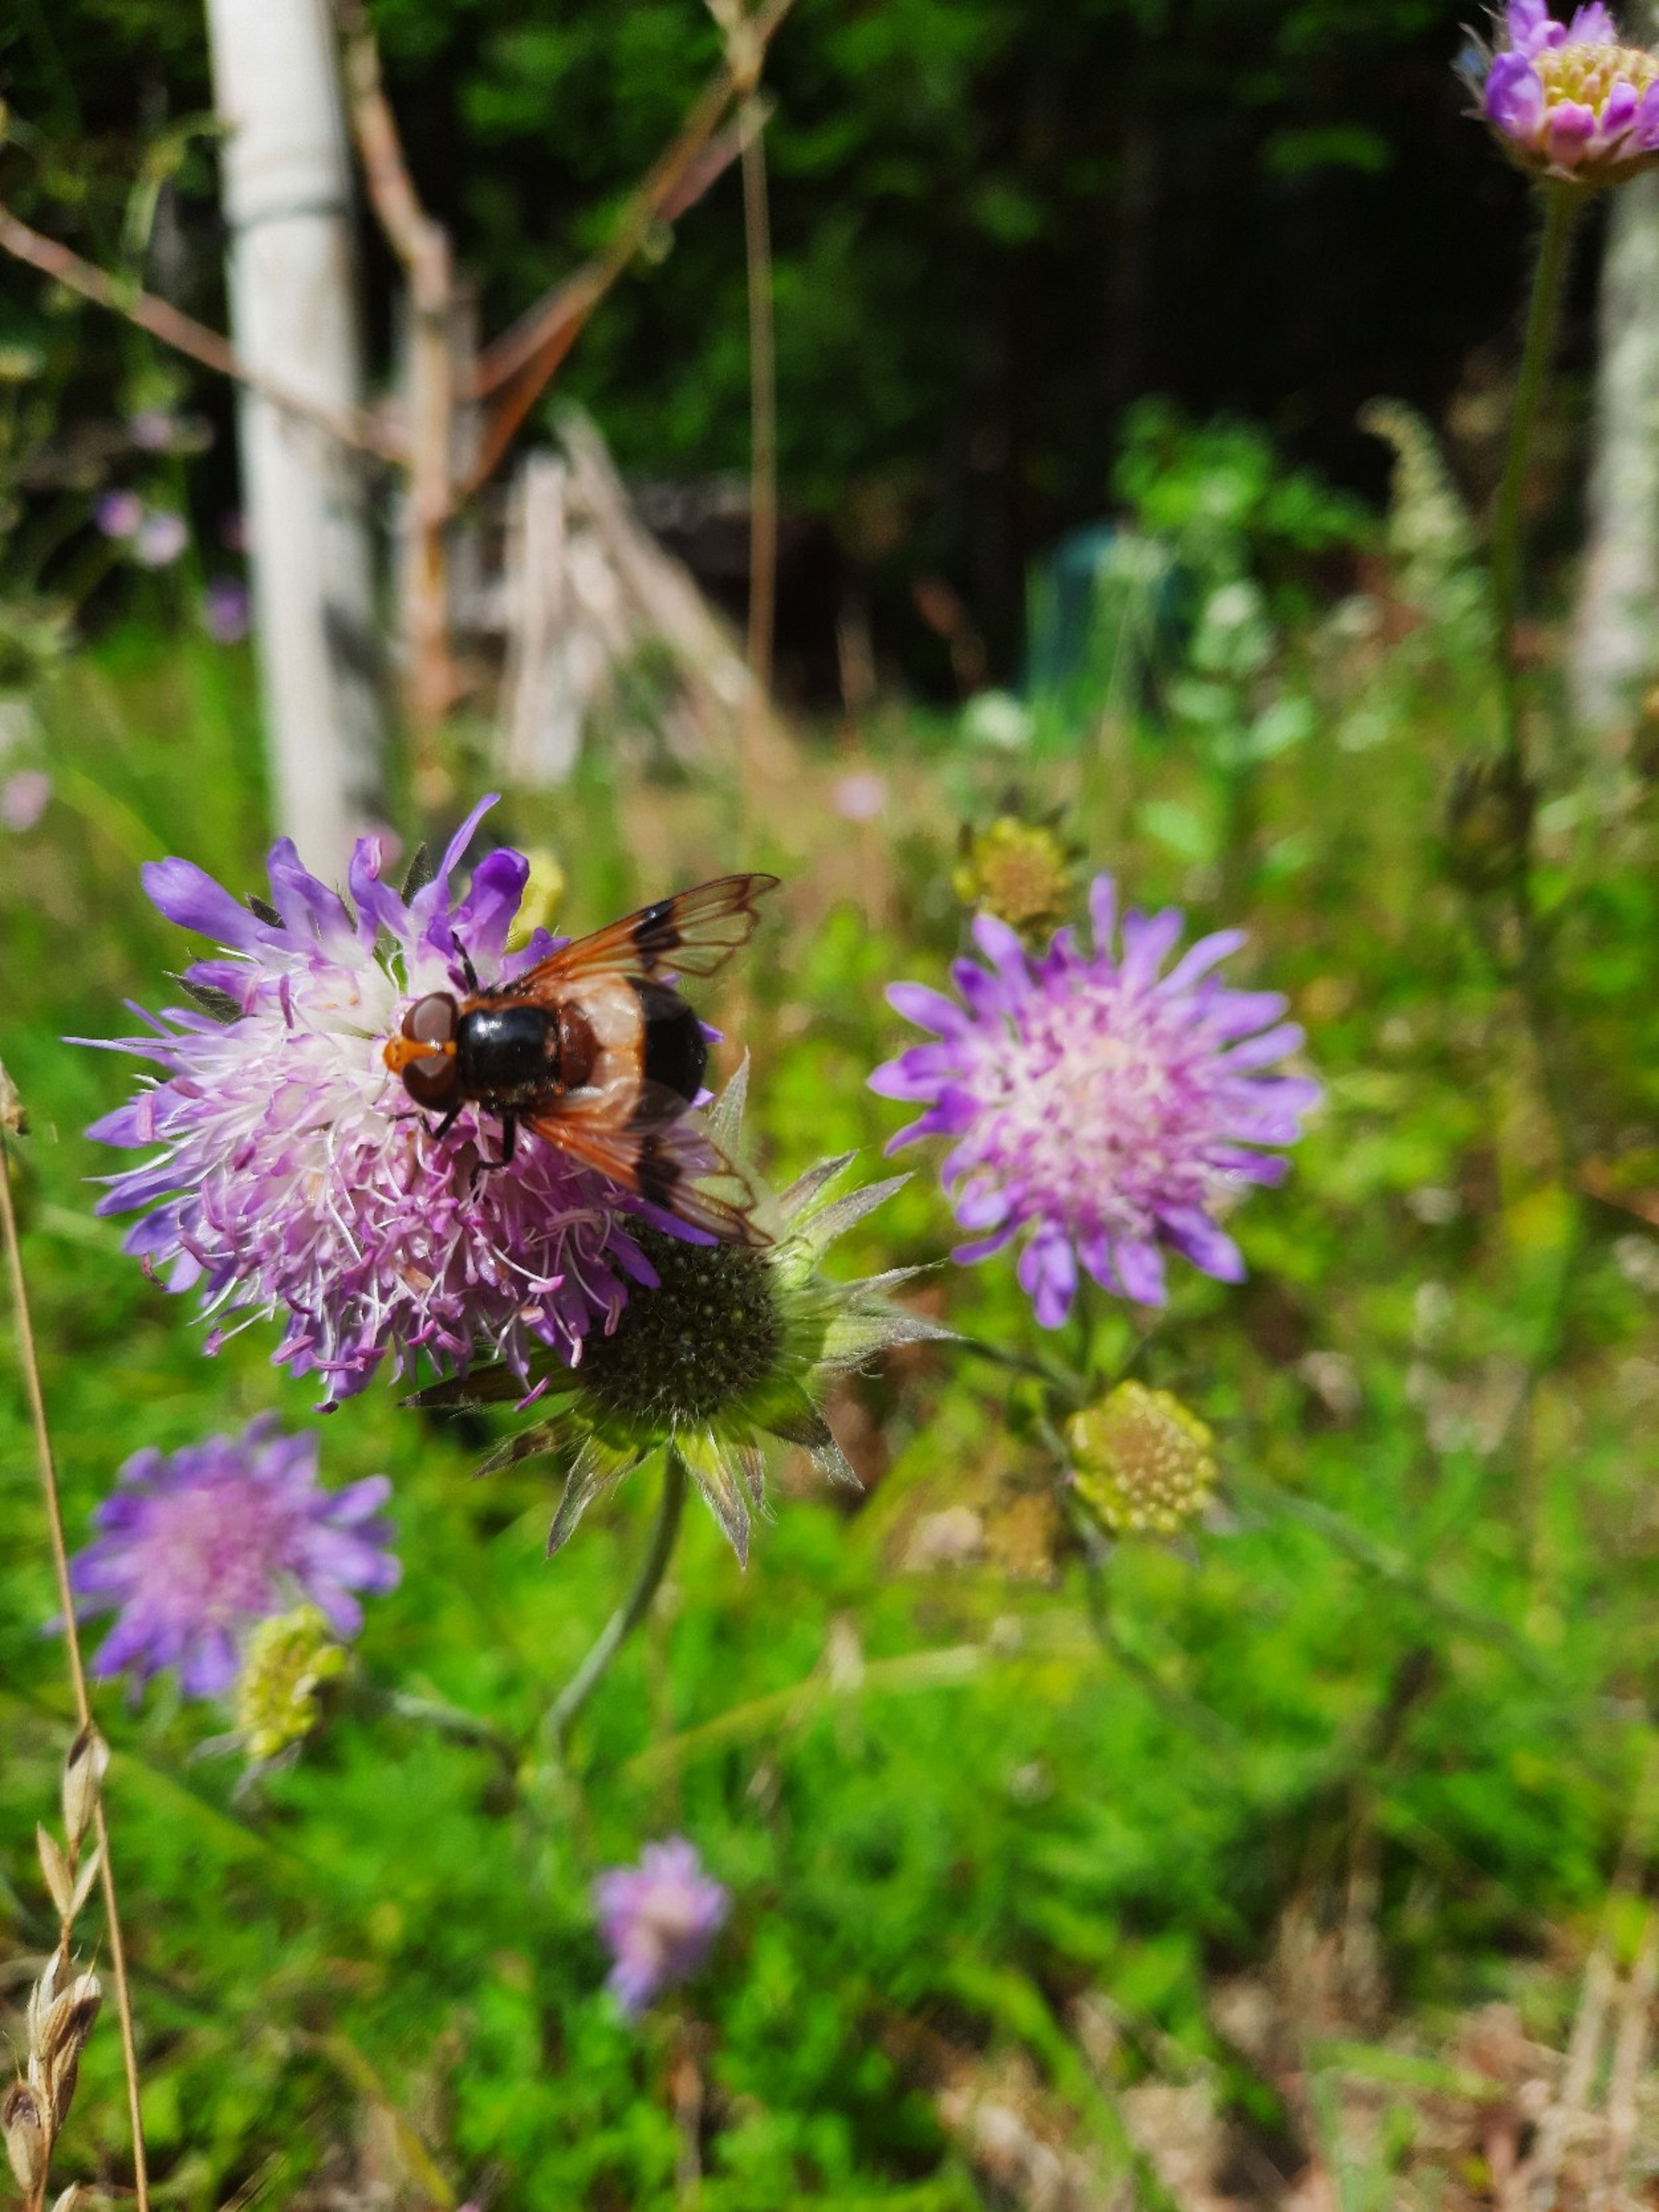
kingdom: Animalia
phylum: Arthropoda
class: Insecta
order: Diptera
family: Syrphidae
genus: Volucella
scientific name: Volucella pellucens
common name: Hvidbåndet humlesvirreflue
